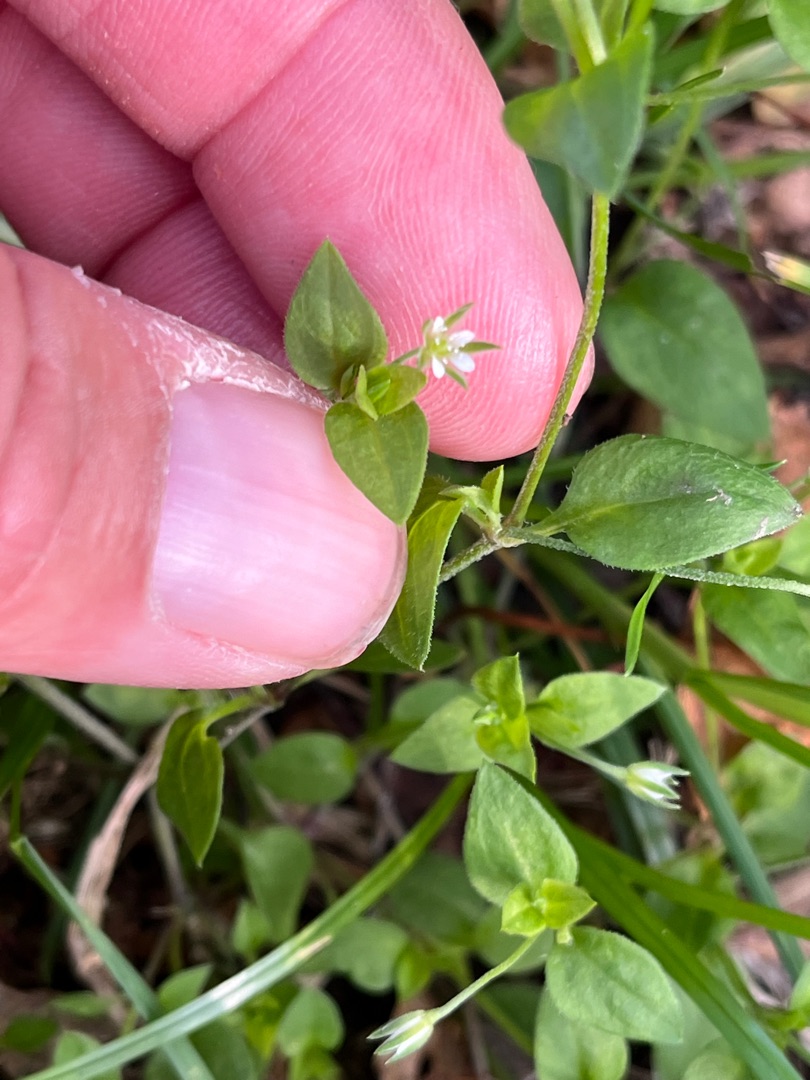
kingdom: Plantae
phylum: Tracheophyta
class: Magnoliopsida
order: Caryophyllales
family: Caryophyllaceae
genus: Moehringia
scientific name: Moehringia trinervia
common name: Skovarve
